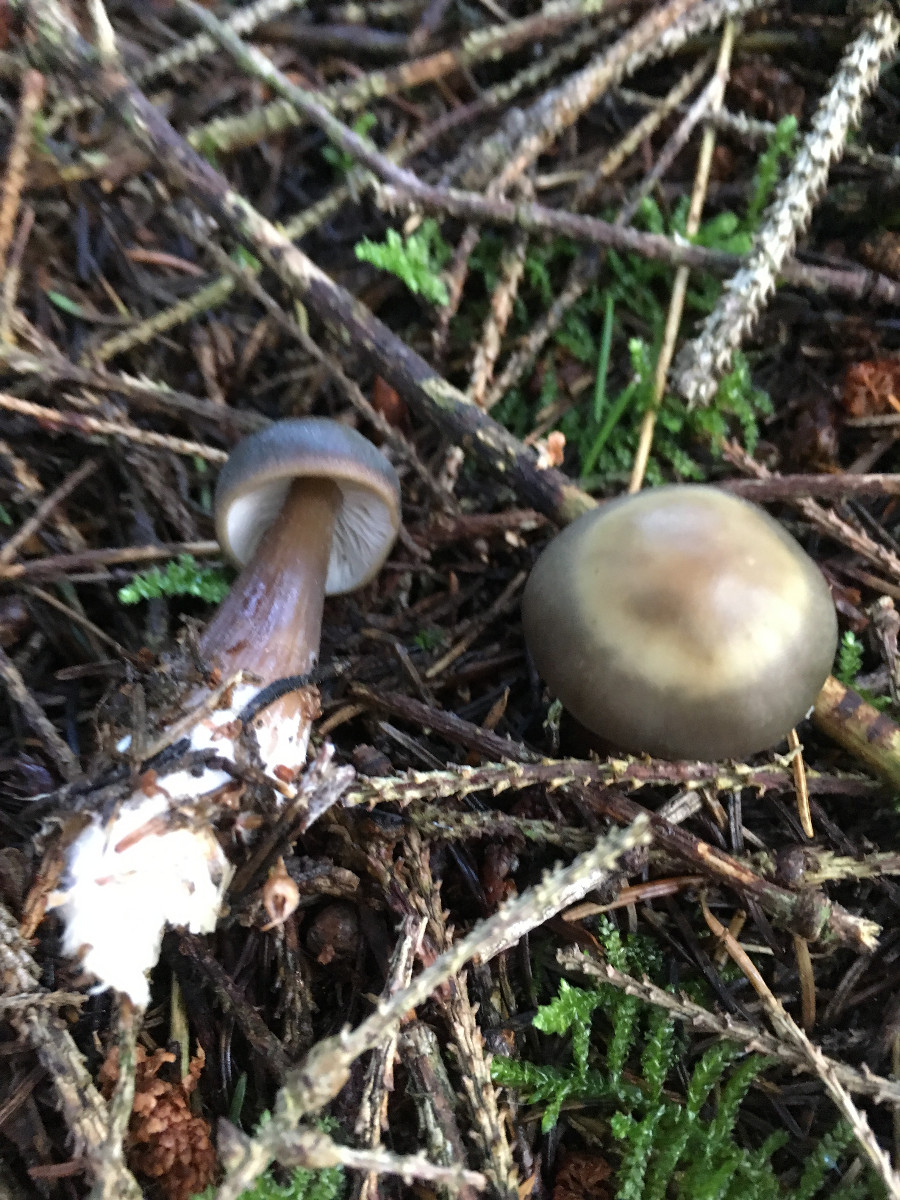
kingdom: Fungi
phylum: Basidiomycota
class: Agaricomycetes
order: Agaricales
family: Omphalotaceae
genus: Rhodocollybia
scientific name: Rhodocollybia asema
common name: horngrå fladhat
